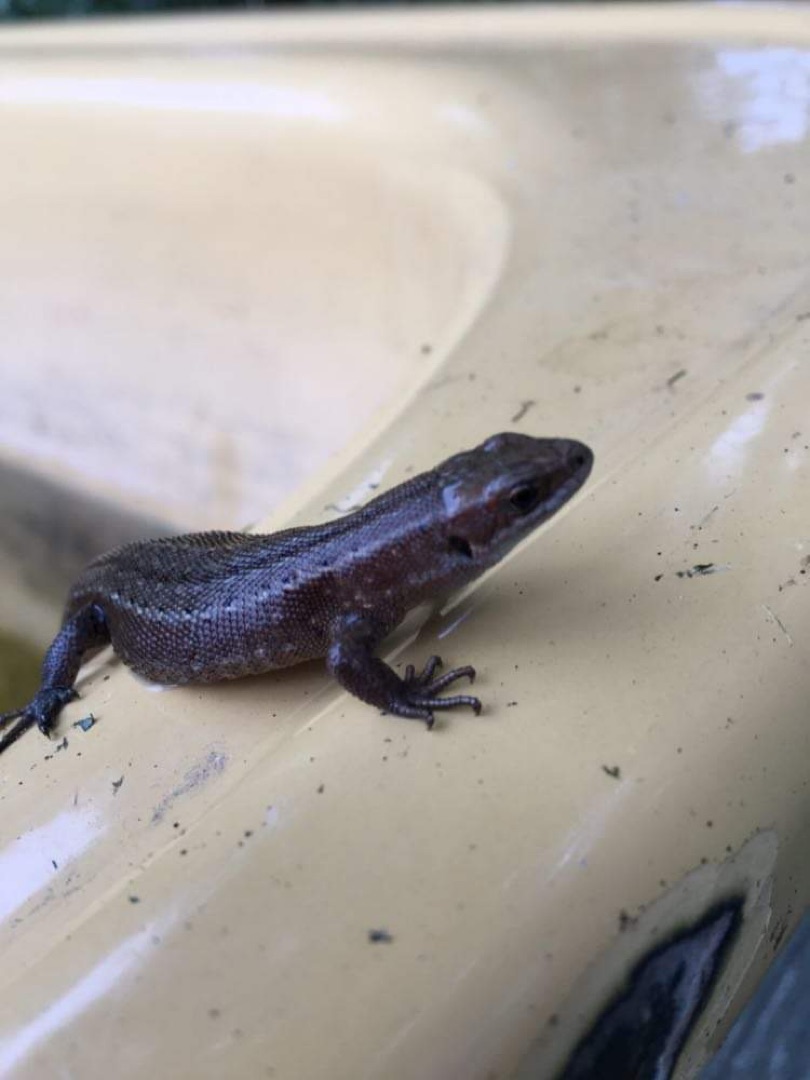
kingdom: Animalia
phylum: Chordata
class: Squamata
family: Lacertidae
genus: Zootoca
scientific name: Zootoca vivipara
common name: Skovfirben
